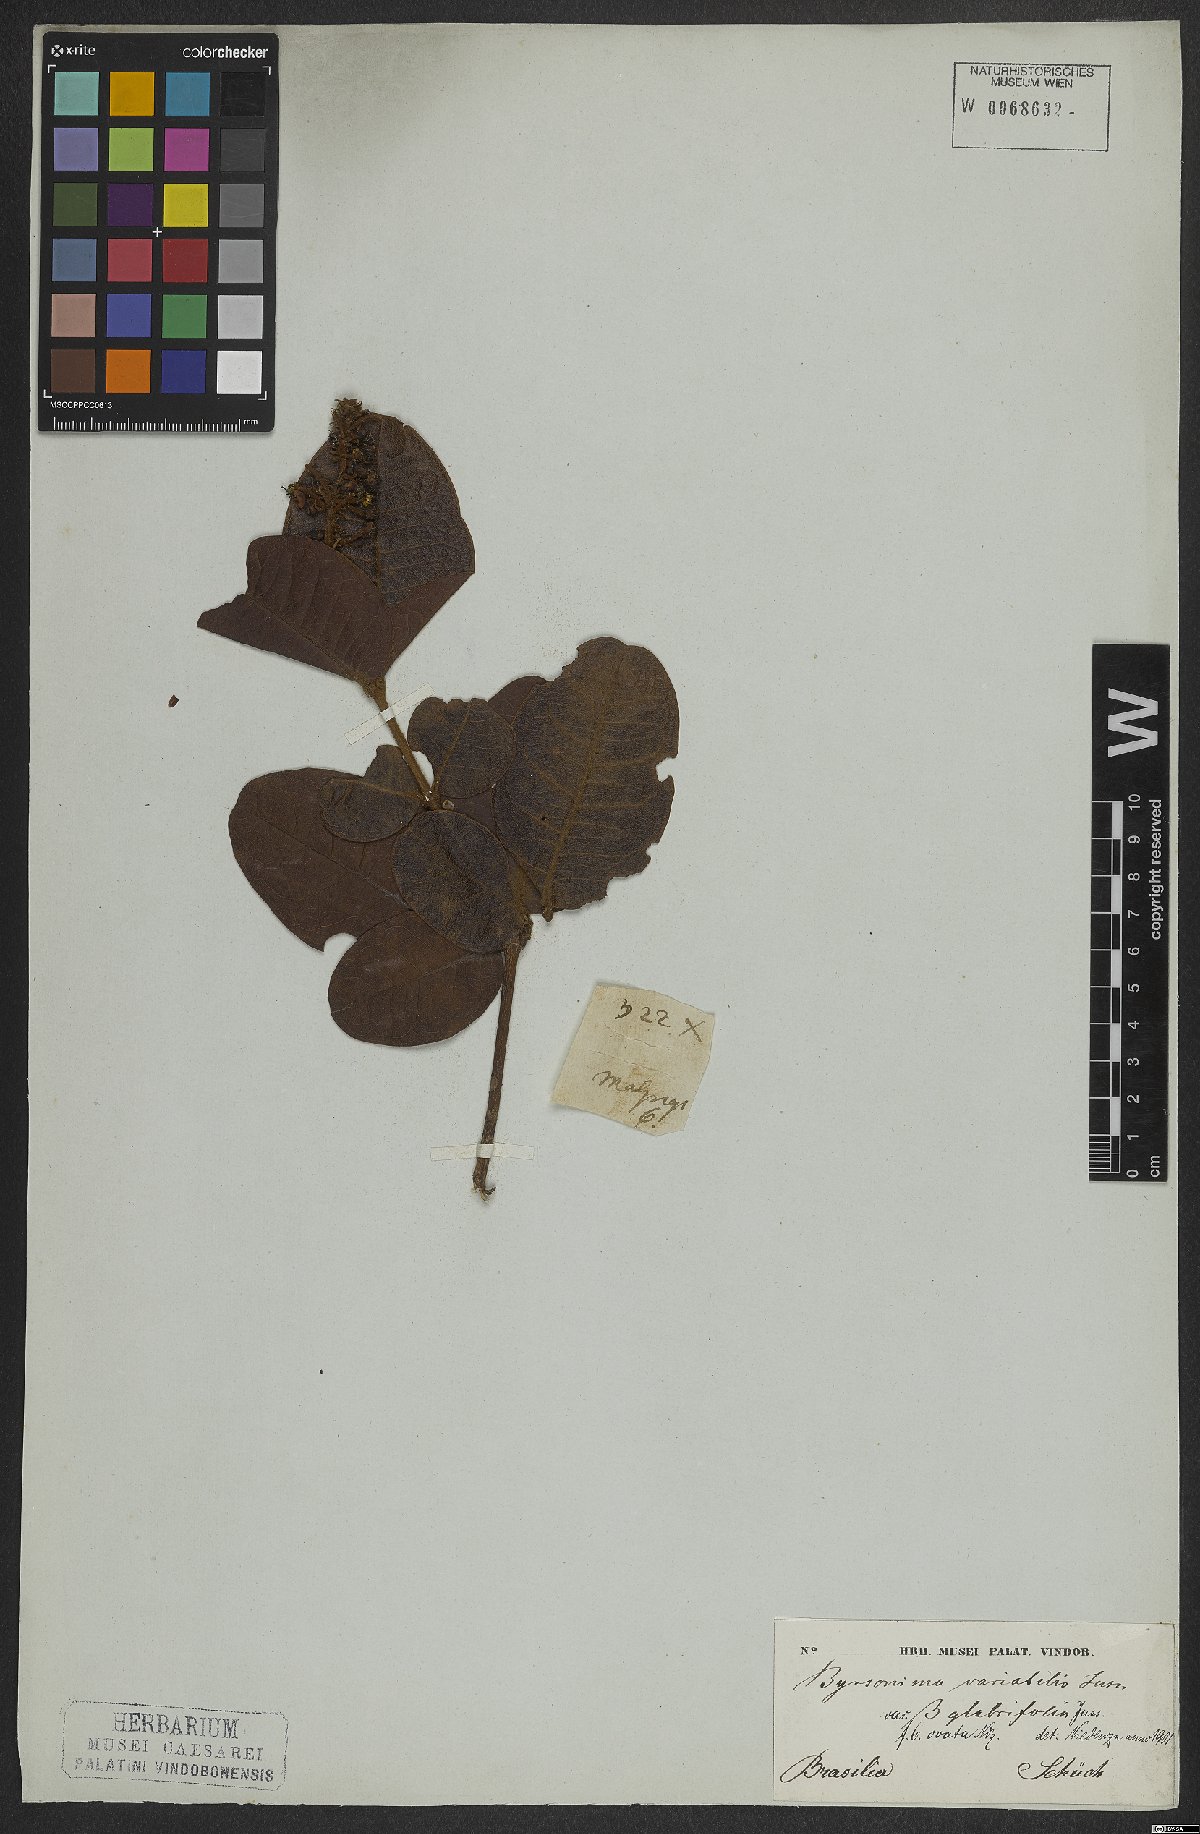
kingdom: Plantae
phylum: Tracheophyta
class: Magnoliopsida
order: Malpighiales
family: Malpighiaceae
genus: Byrsonima
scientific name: Byrsonima variabilis
